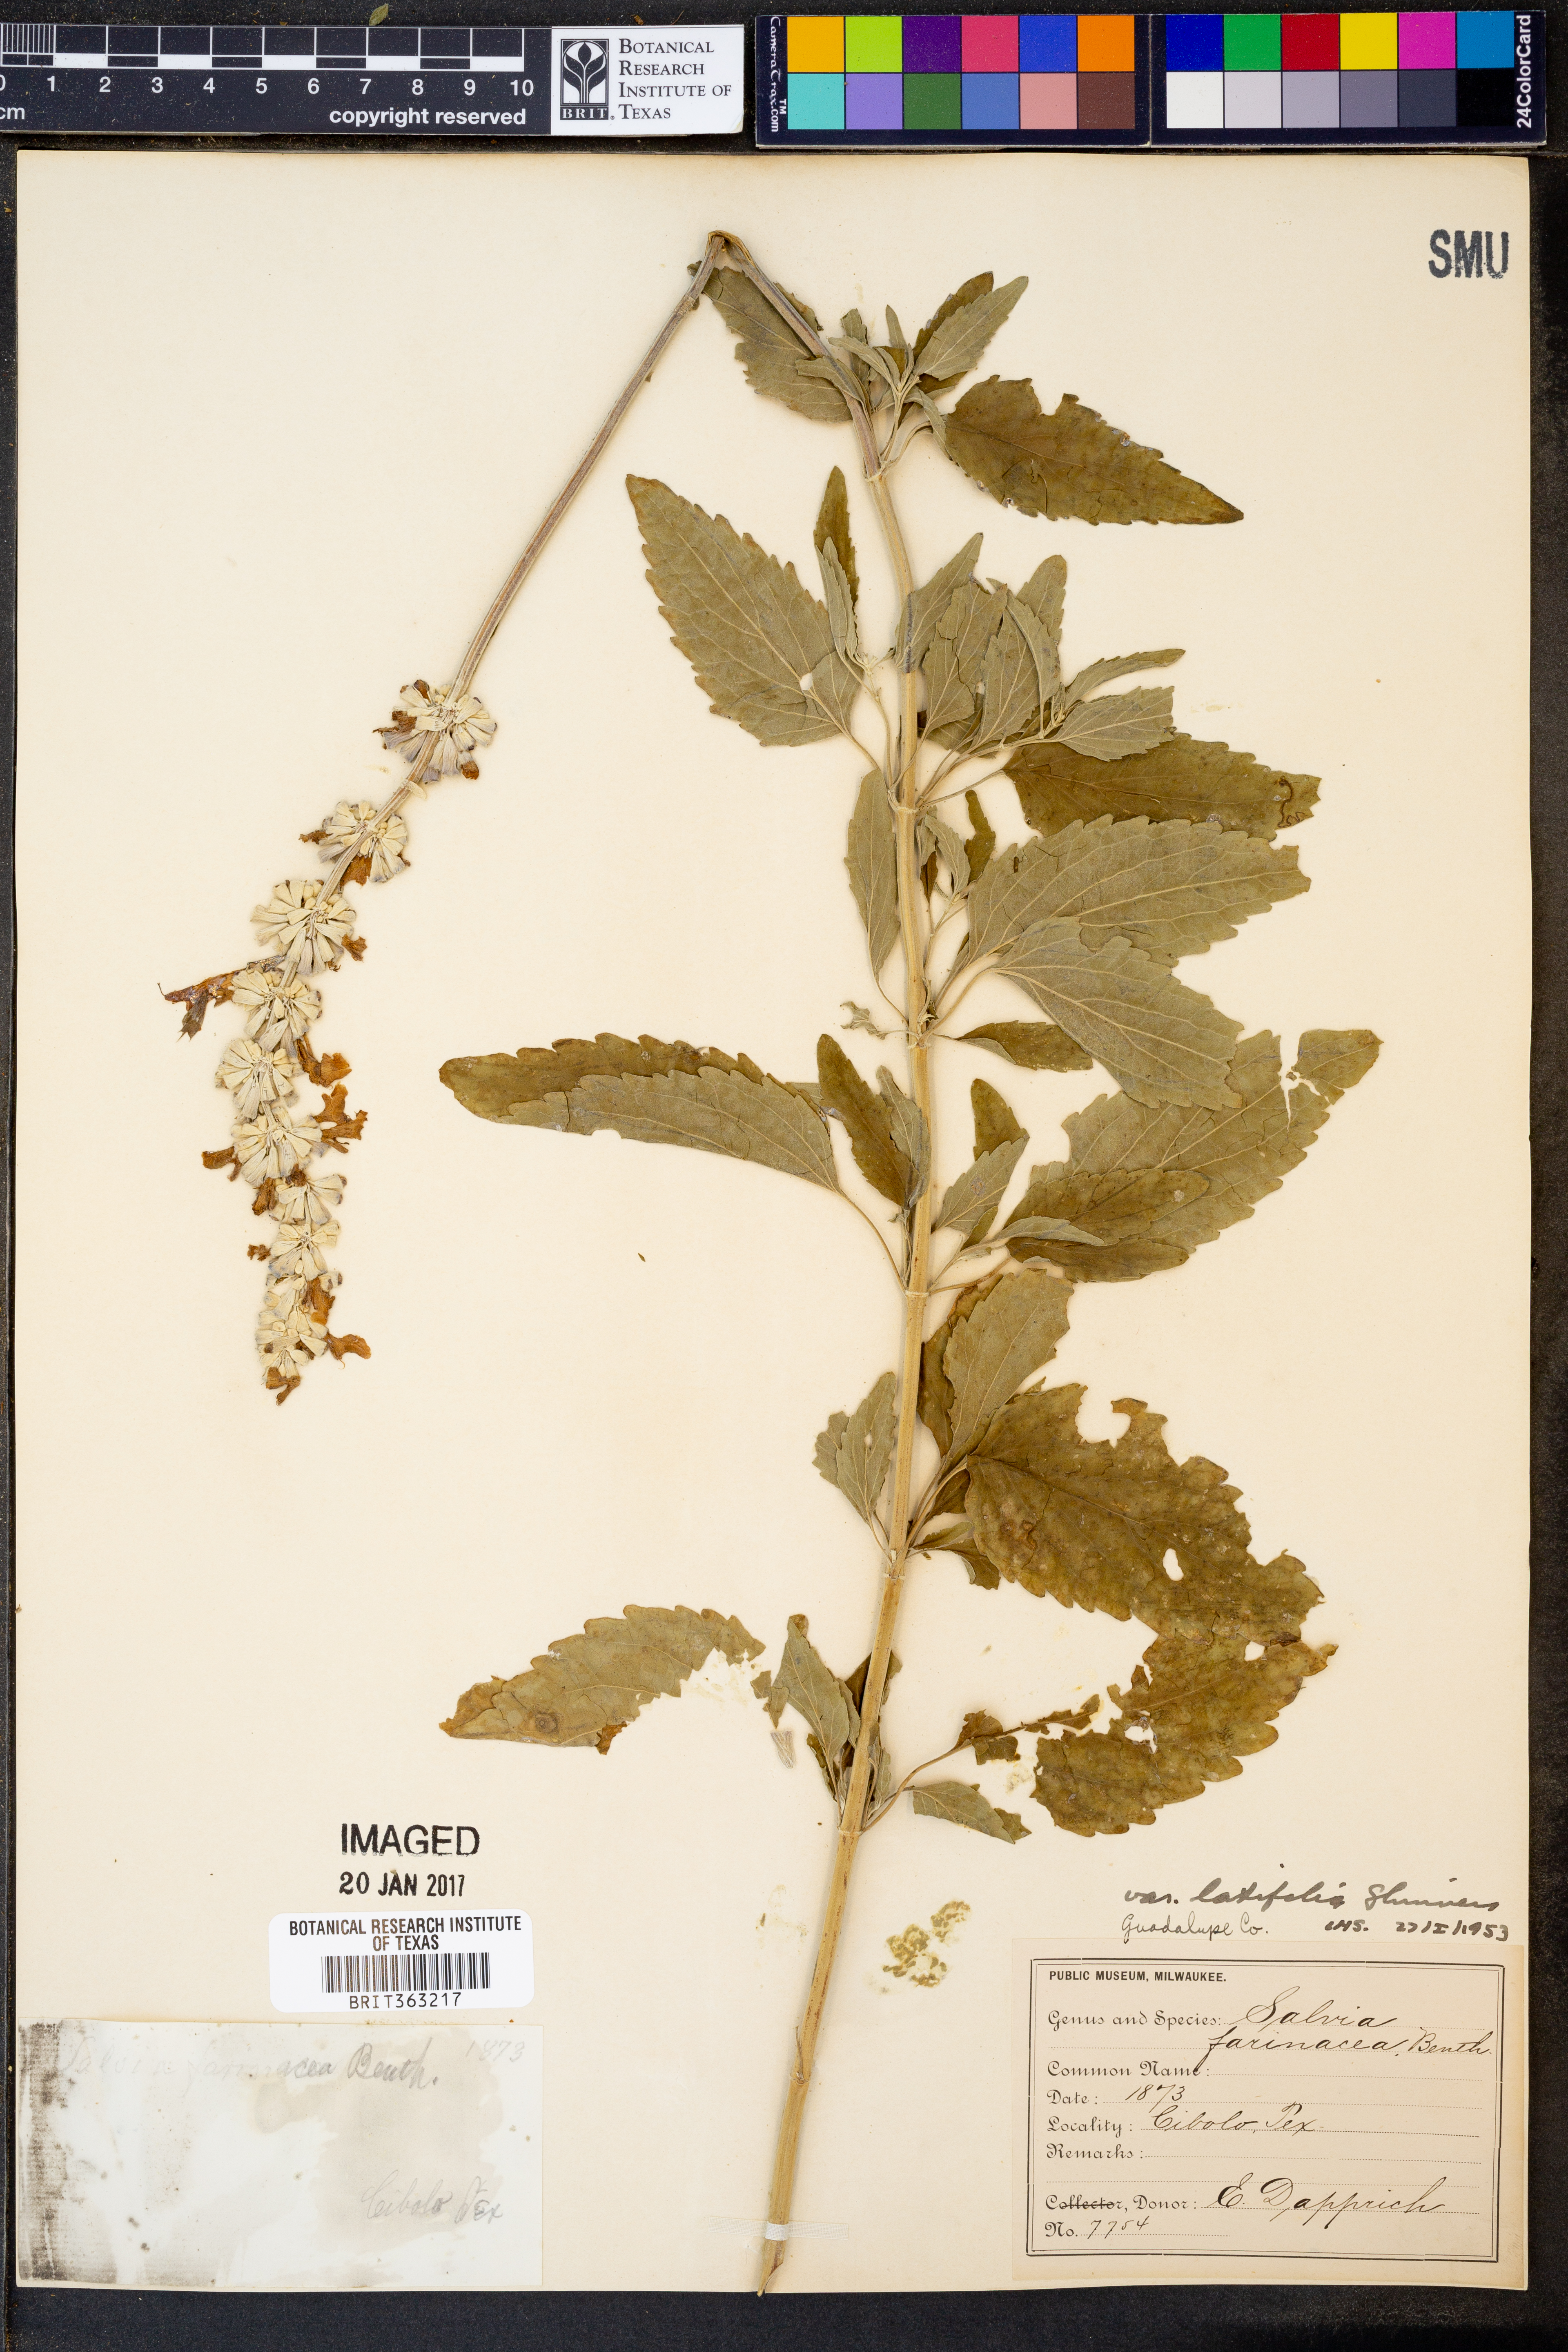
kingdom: Plantae
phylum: Tracheophyta
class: Magnoliopsida
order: Lamiales
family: Lamiaceae
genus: Salvia
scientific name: Salvia farinacea
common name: Mealy sage
